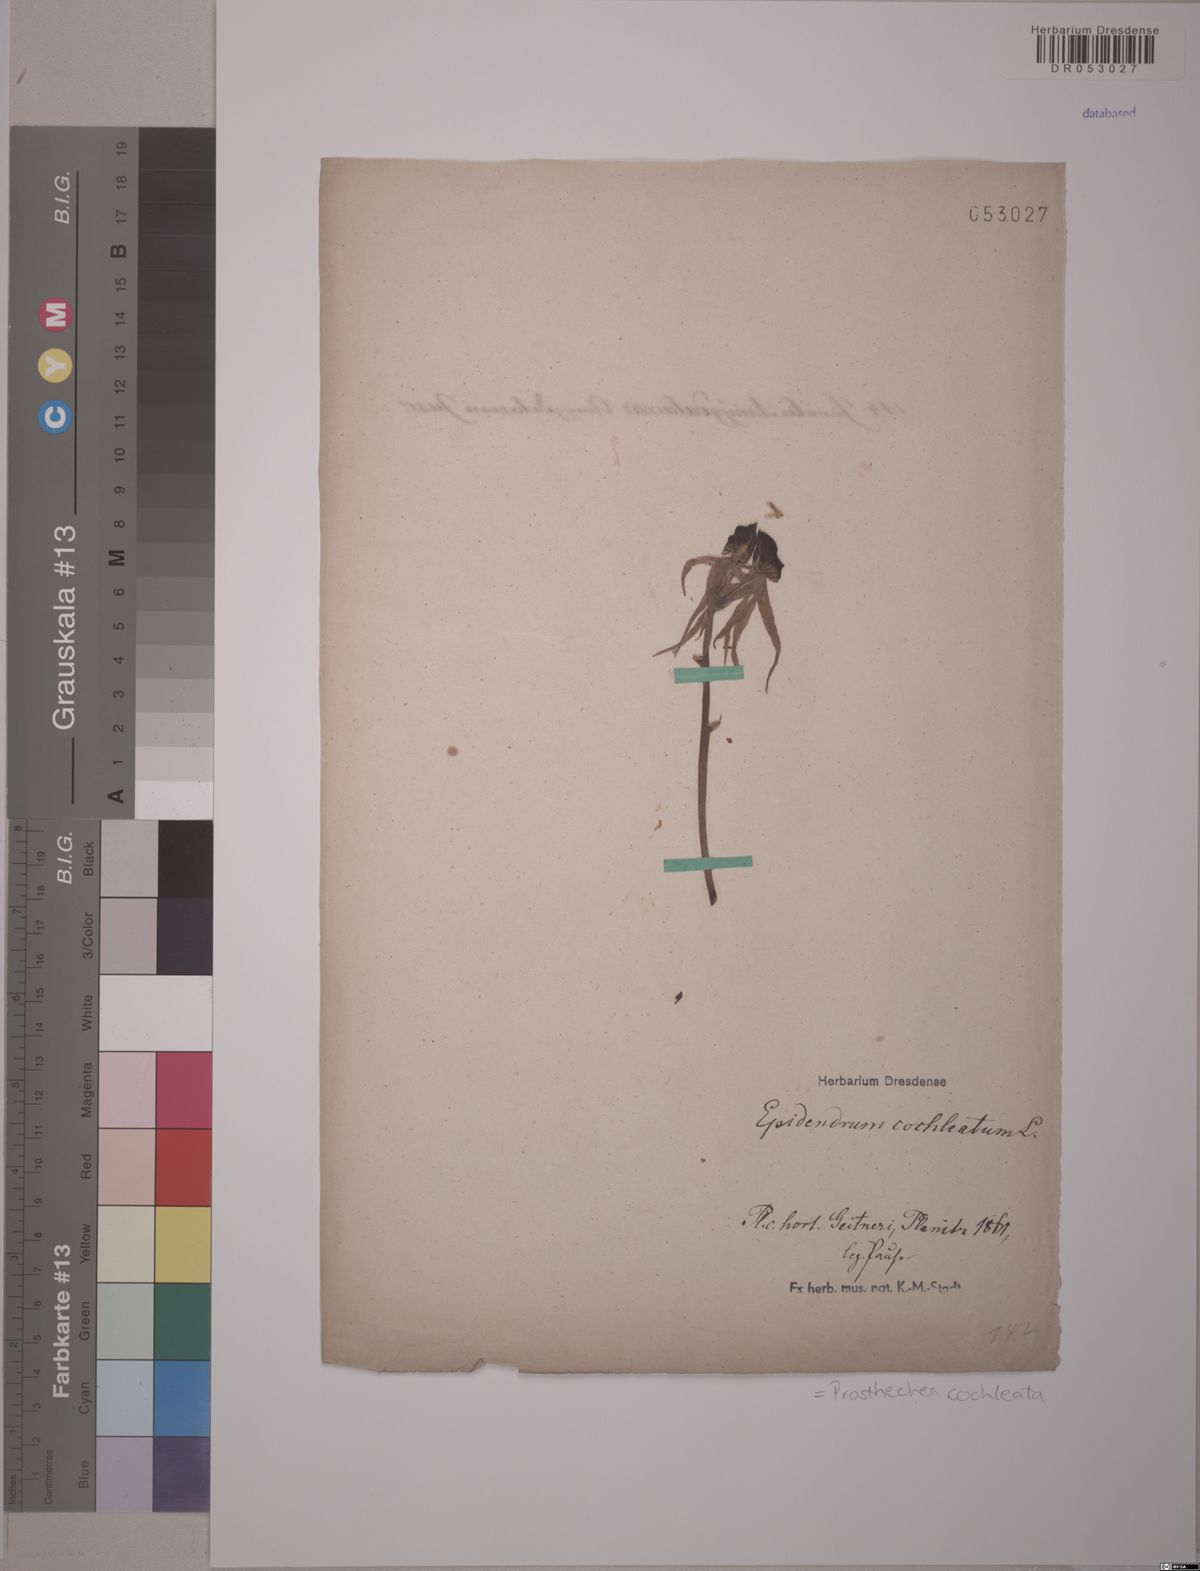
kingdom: Plantae
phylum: Tracheophyta
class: Liliopsida
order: Asparagales
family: Orchidaceae
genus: Prosthechea
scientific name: Prosthechea cochleata
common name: Clamshell orchid
